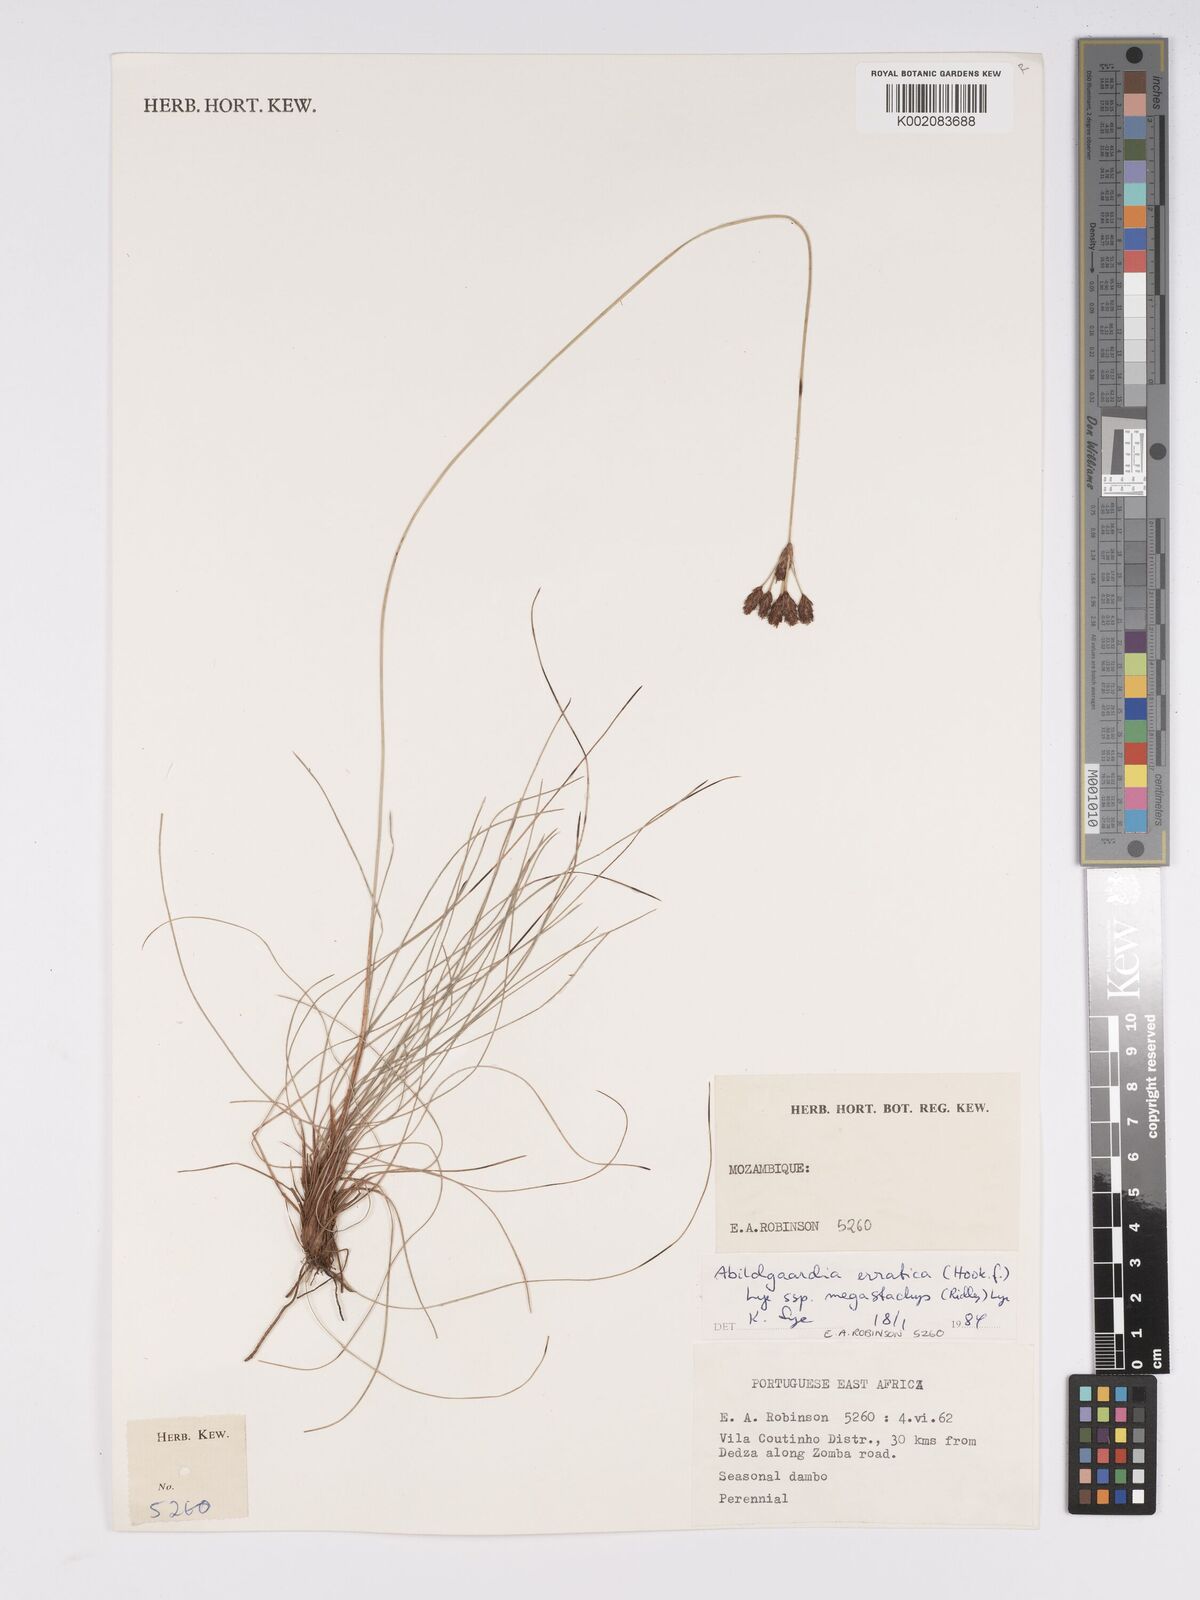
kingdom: Plantae
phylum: Tracheophyta
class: Liliopsida
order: Poales
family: Cyperaceae
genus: Bulbostylis
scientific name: Bulbostylis schoenoides
